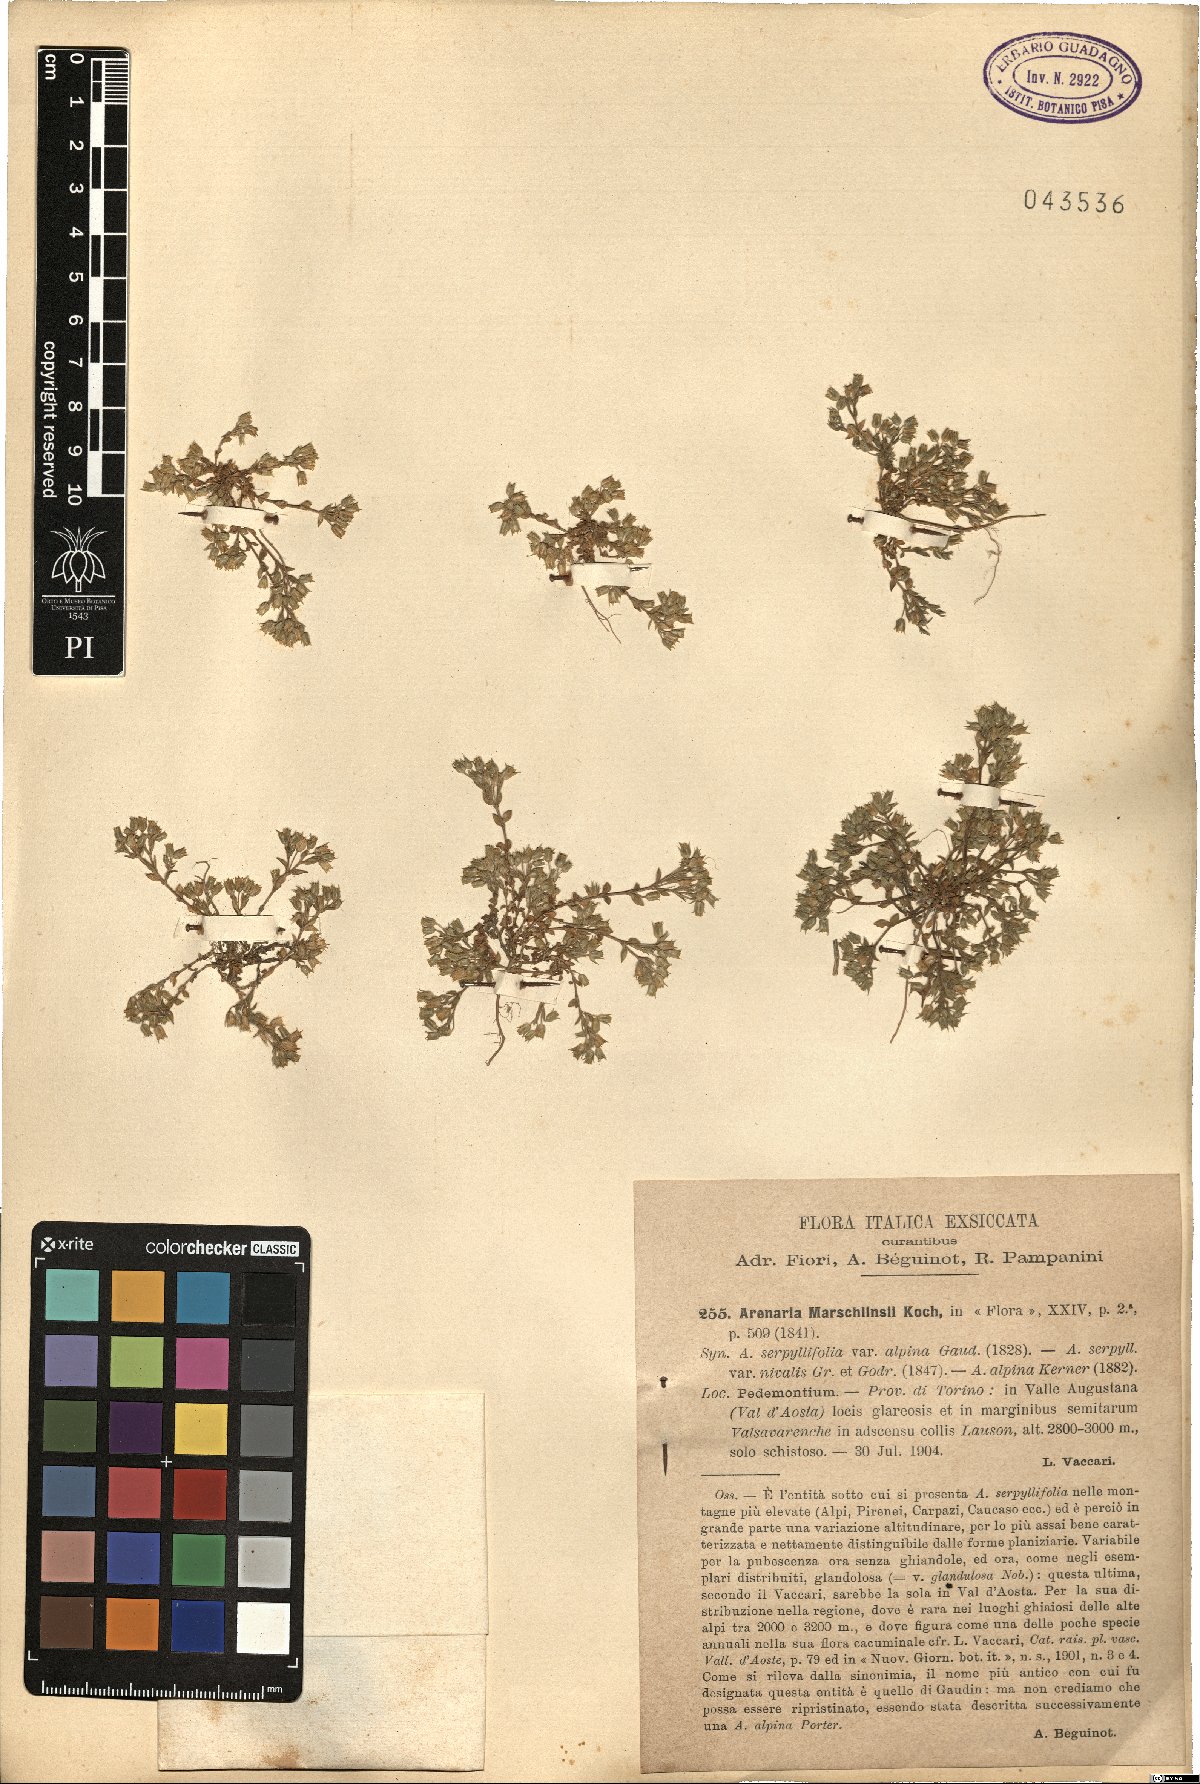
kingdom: Plantae
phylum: Tracheophyta
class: Magnoliopsida
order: Caryophyllales
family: Caryophyllaceae
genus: Arenaria
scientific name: Arenaria marschlinsii
